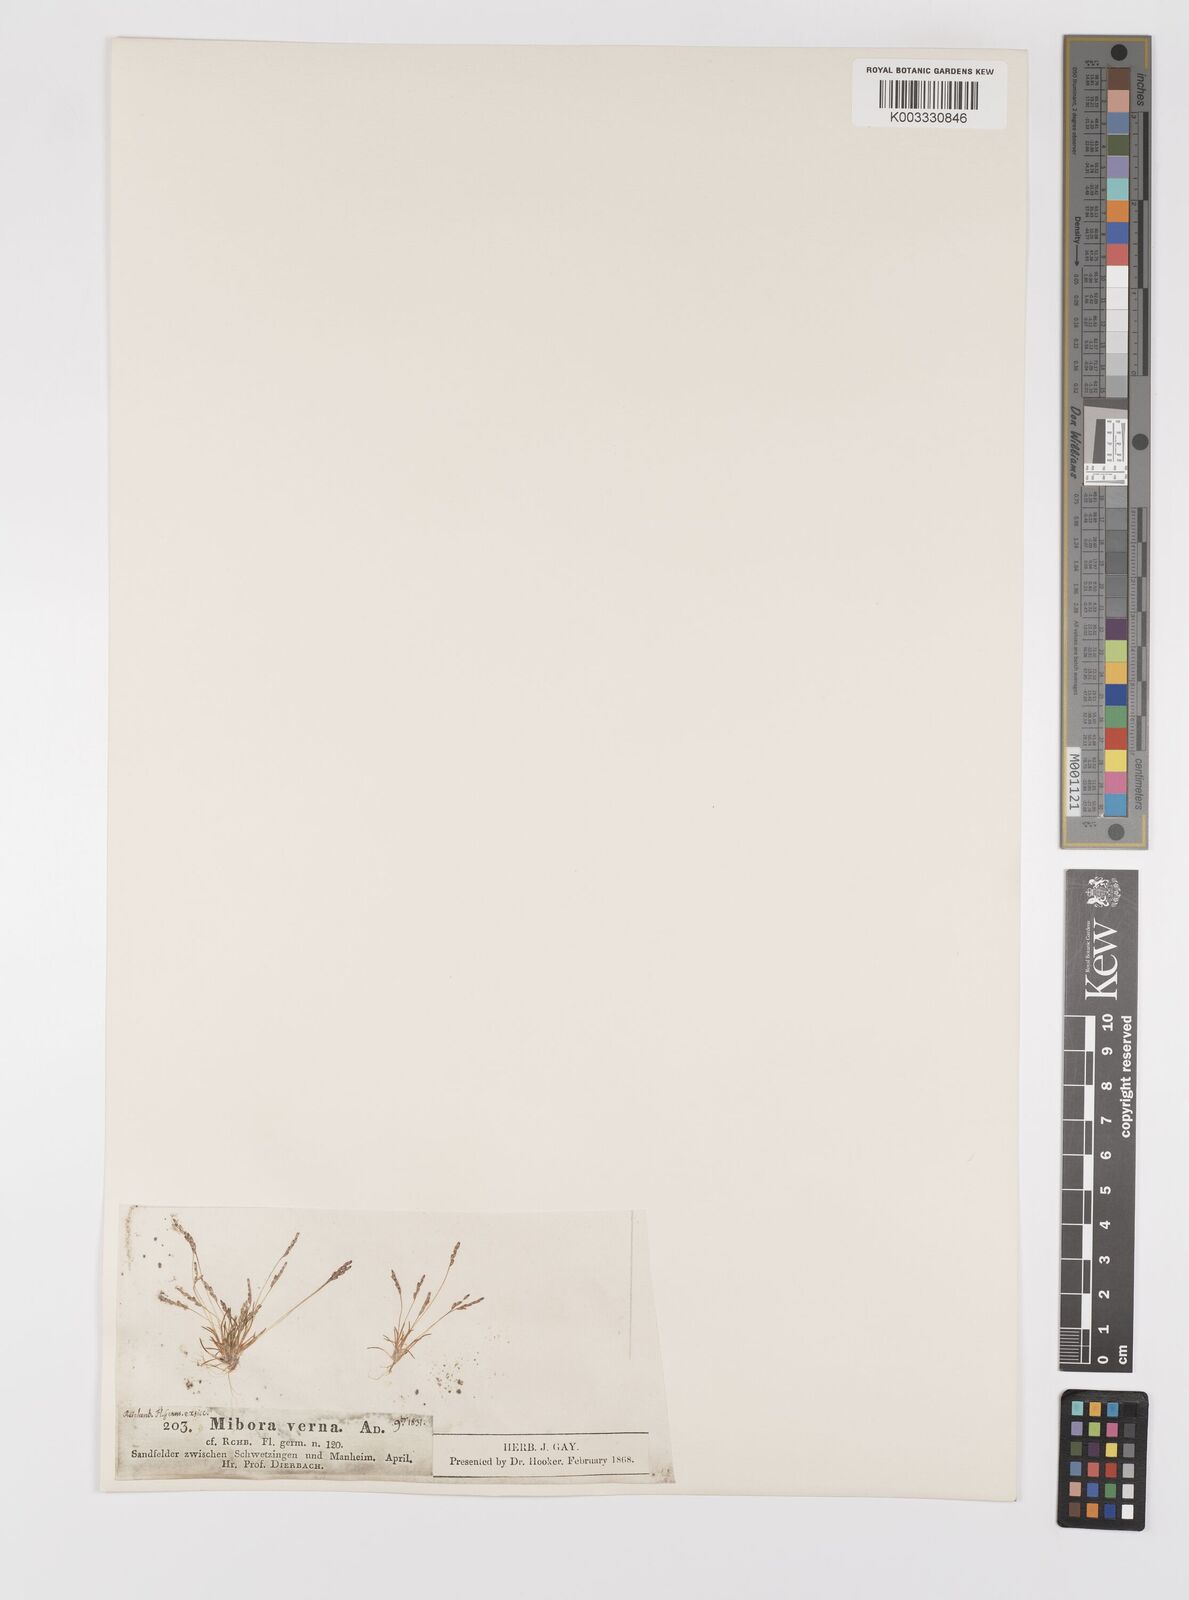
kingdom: Plantae
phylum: Tracheophyta
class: Liliopsida
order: Poales
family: Poaceae
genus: Mibora
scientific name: Mibora minima
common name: Early sand-grass
